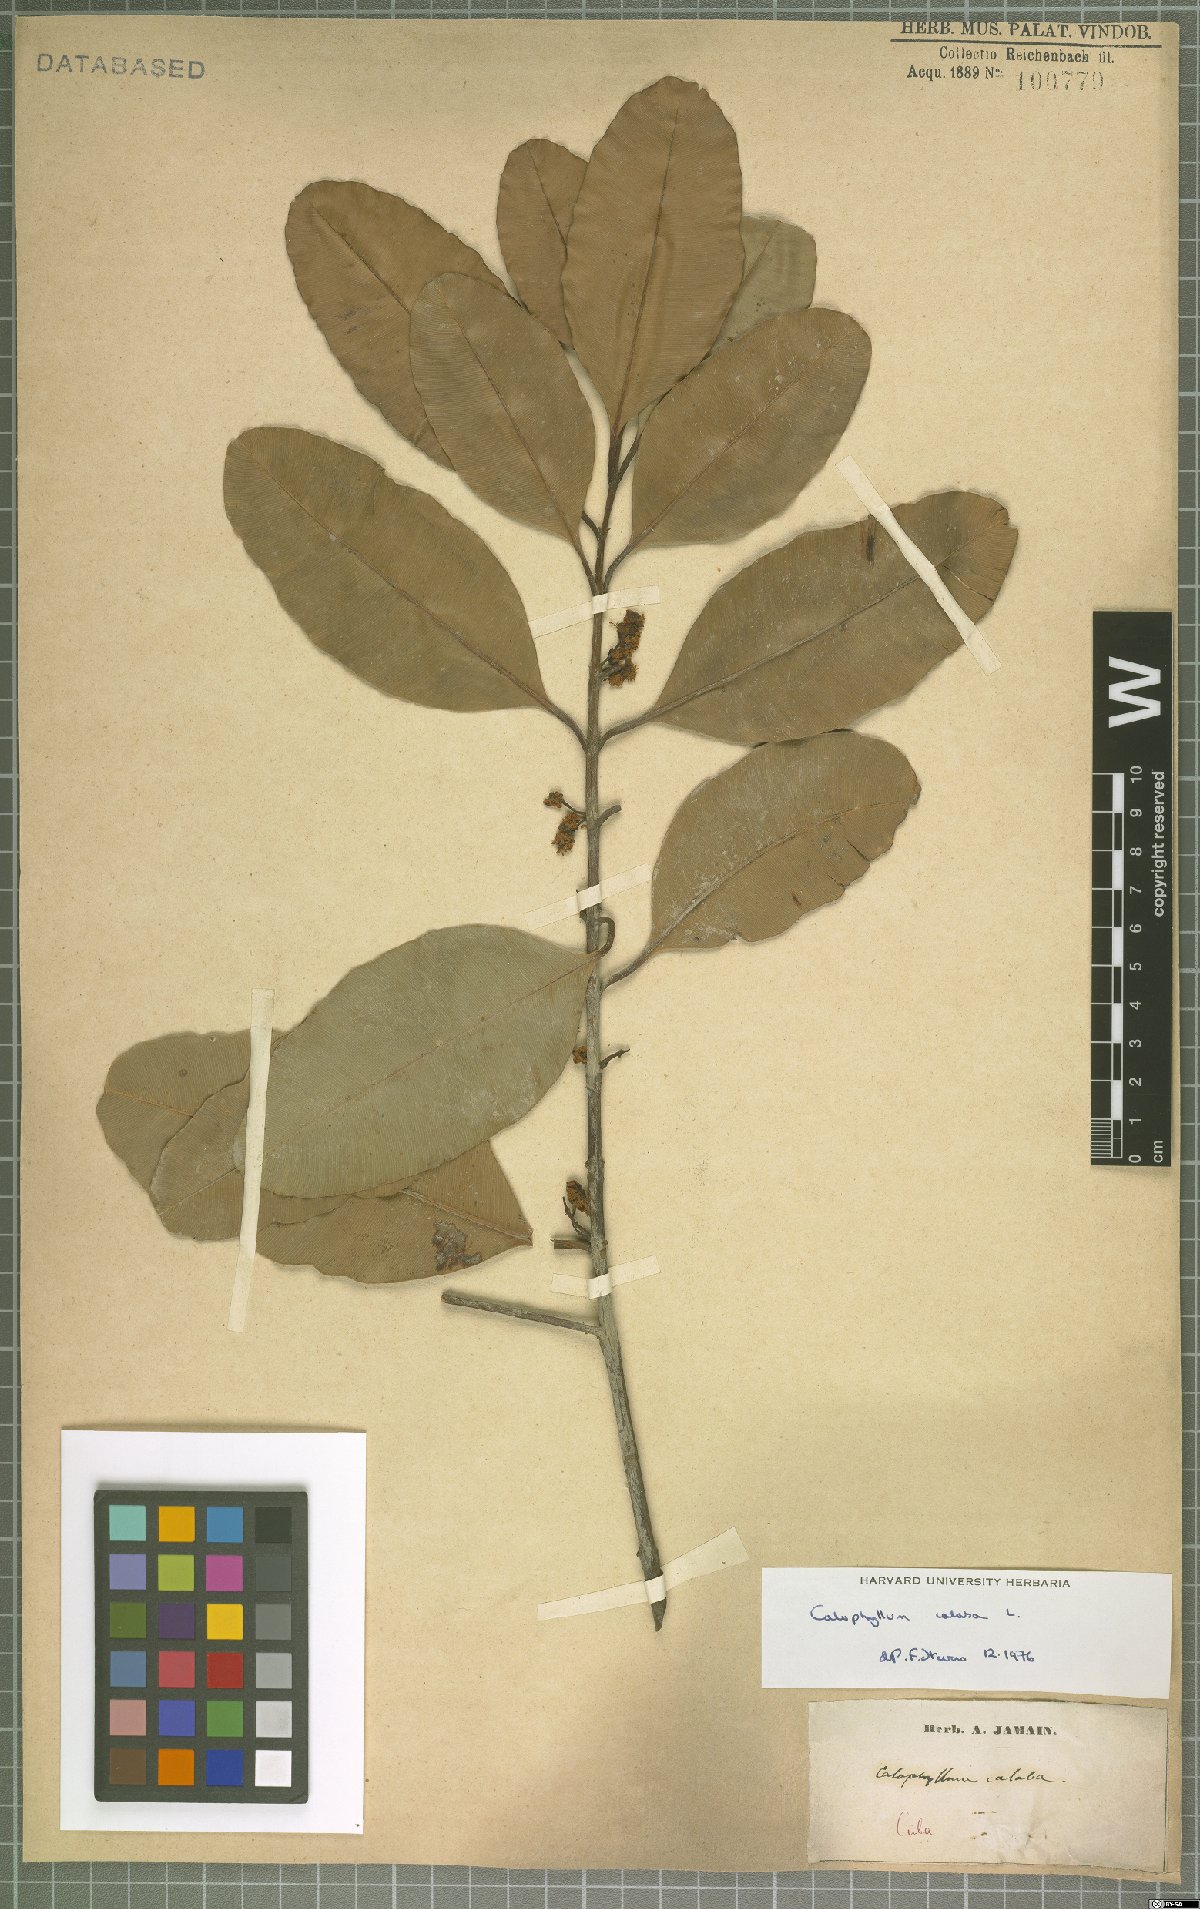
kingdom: Plantae
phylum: Tracheophyta
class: Magnoliopsida
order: Malpighiales
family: Calophyllaceae
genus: Calophyllum
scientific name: Calophyllum calaba
